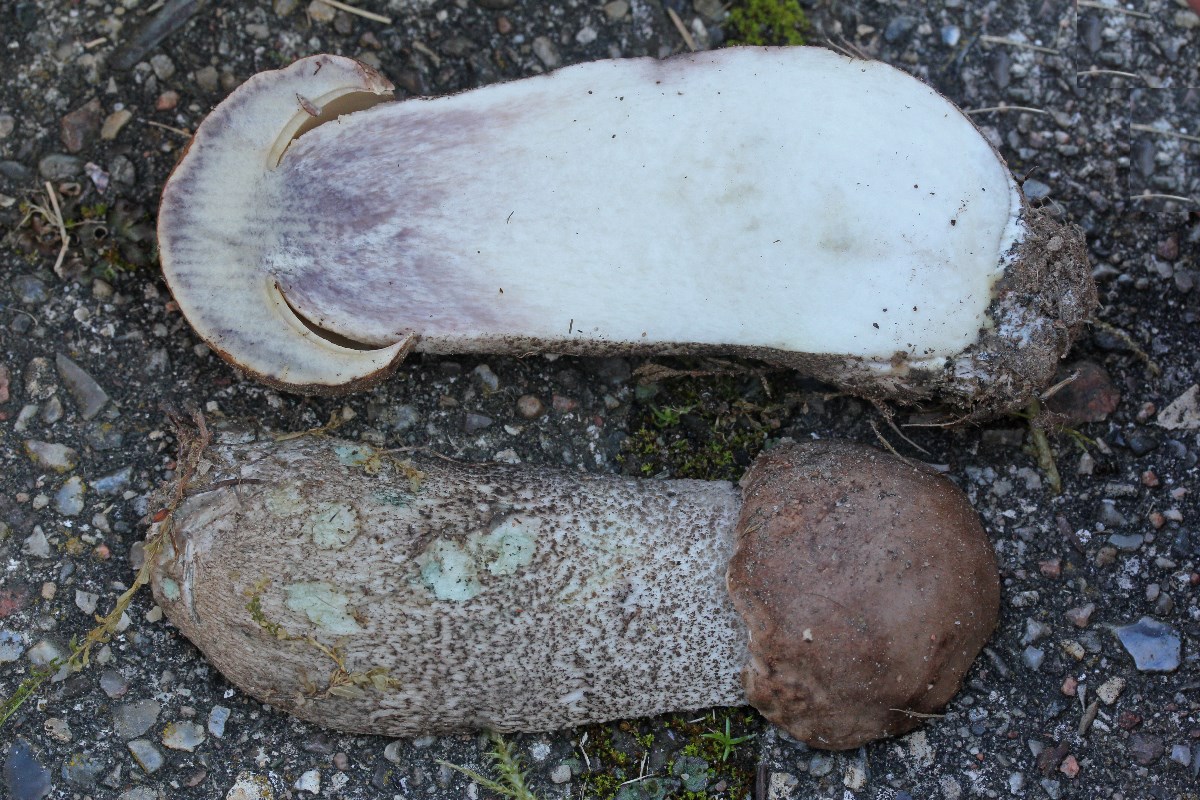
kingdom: Fungi
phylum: Basidiomycota
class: Agaricomycetes
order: Boletales
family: Boletaceae
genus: Leccinum
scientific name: Leccinum duriusculum
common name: poppel-skælrørhat
